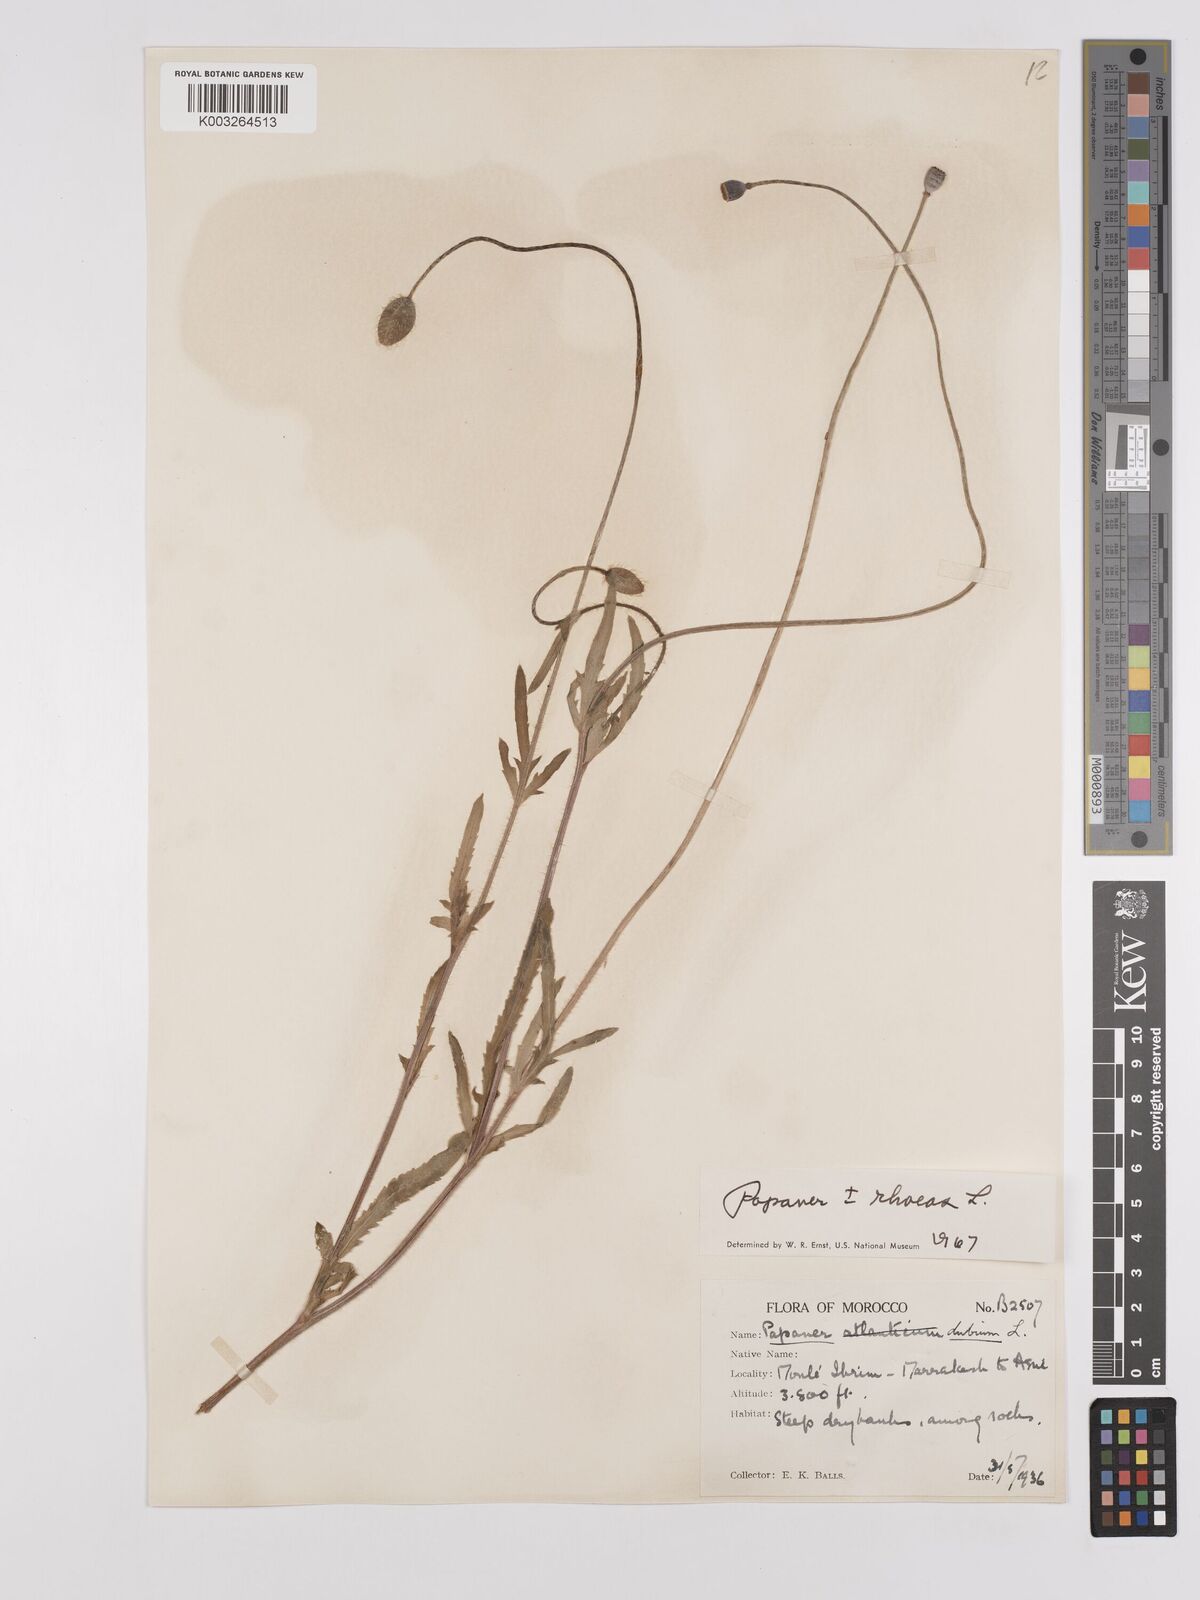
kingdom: Plantae
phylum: Tracheophyta
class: Magnoliopsida
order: Ranunculales
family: Papaveraceae
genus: Papaver
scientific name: Papaver rhoeas
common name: Corn poppy
